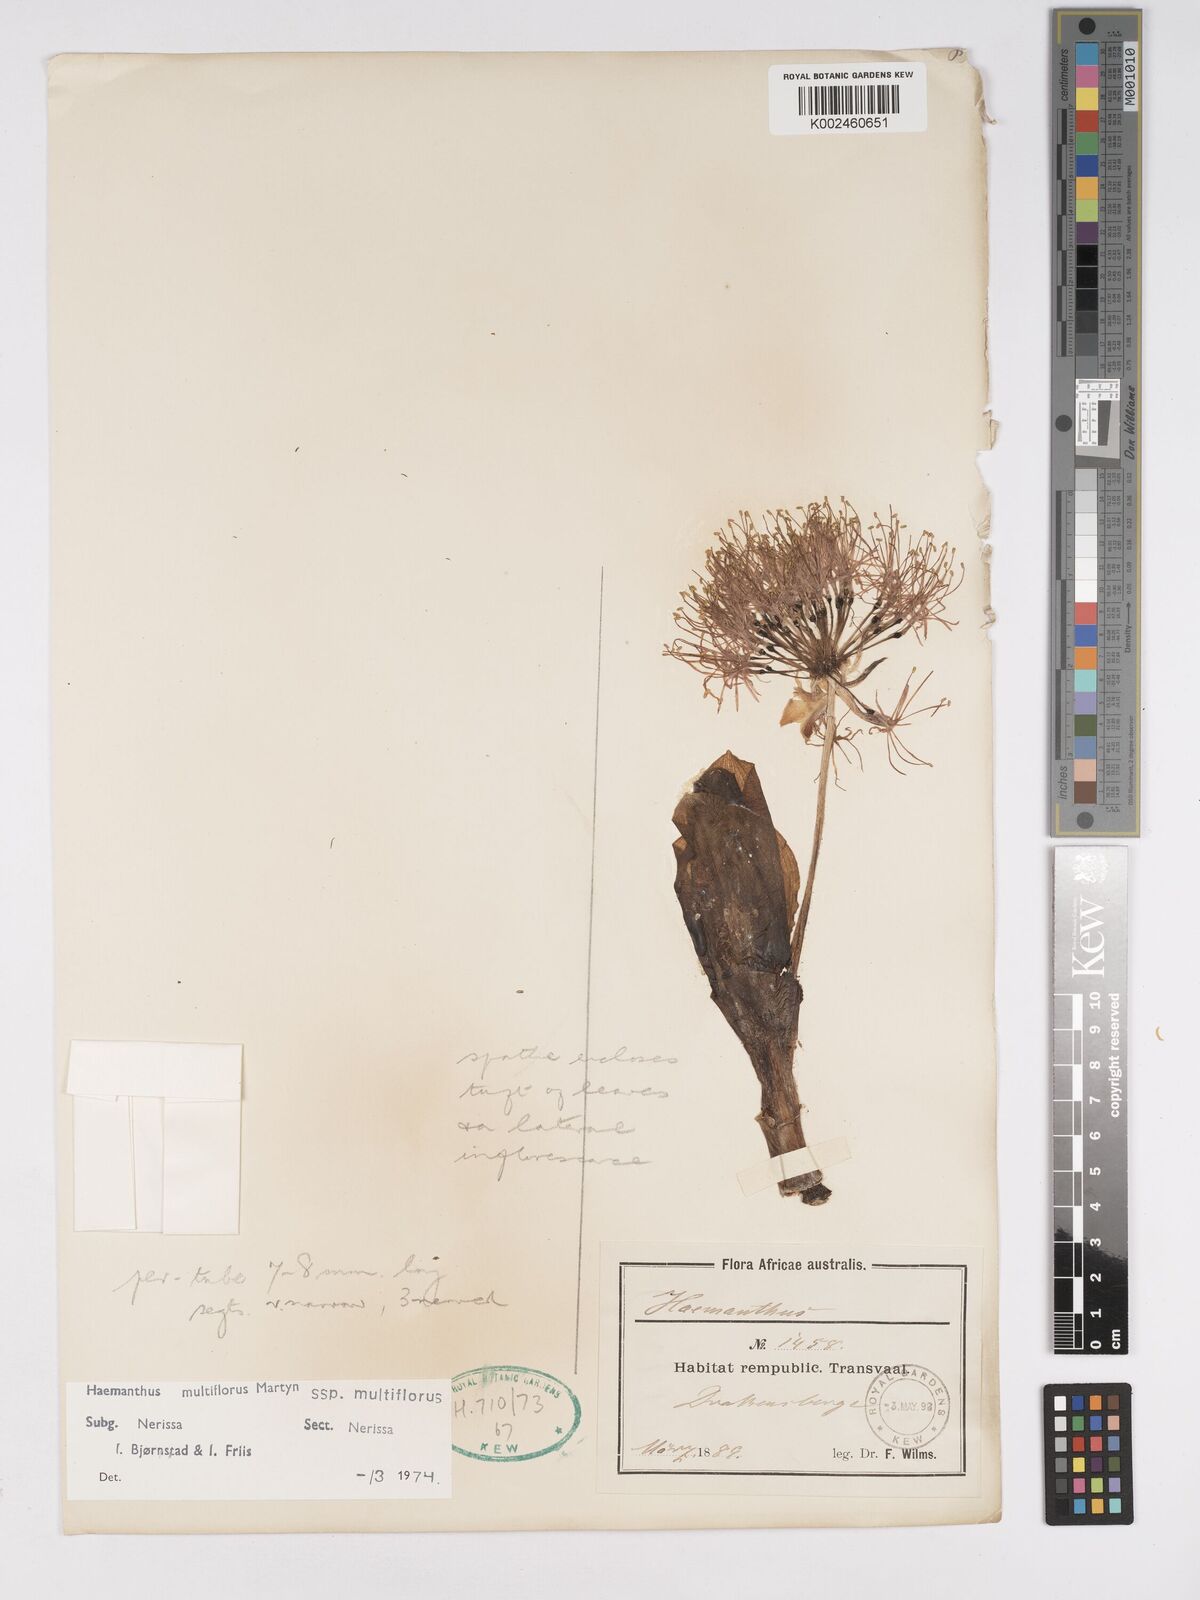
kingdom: Plantae
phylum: Tracheophyta
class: Liliopsida
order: Asparagales
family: Amaryllidaceae
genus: Scadoxus
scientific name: Scadoxus multiflorus
